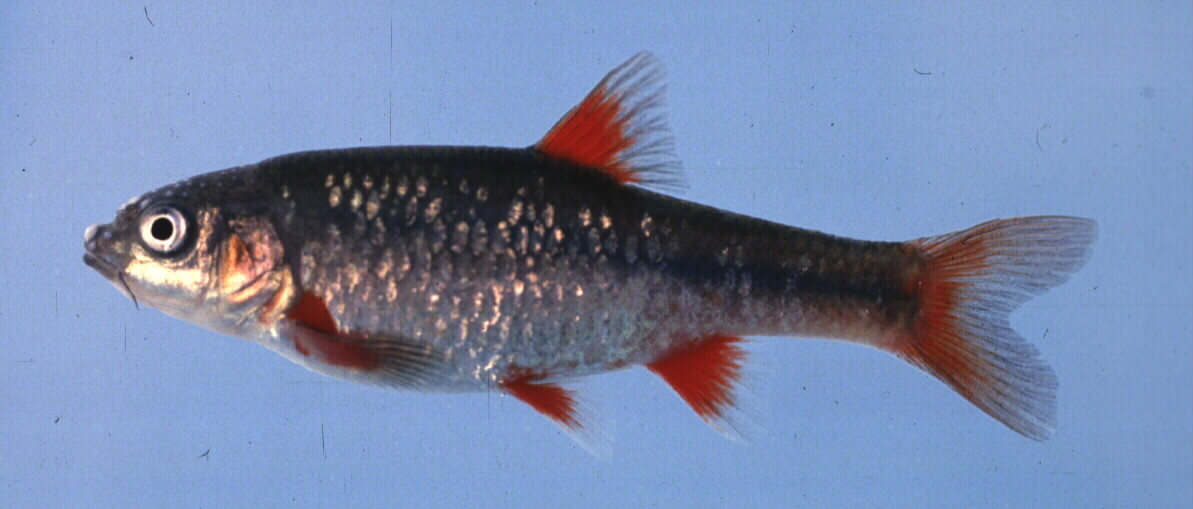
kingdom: Animalia
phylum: Chordata
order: Cypriniformes
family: Cyprinidae
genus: Pseudobarbus
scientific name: Pseudobarbus afer
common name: Eastern cape redfin
